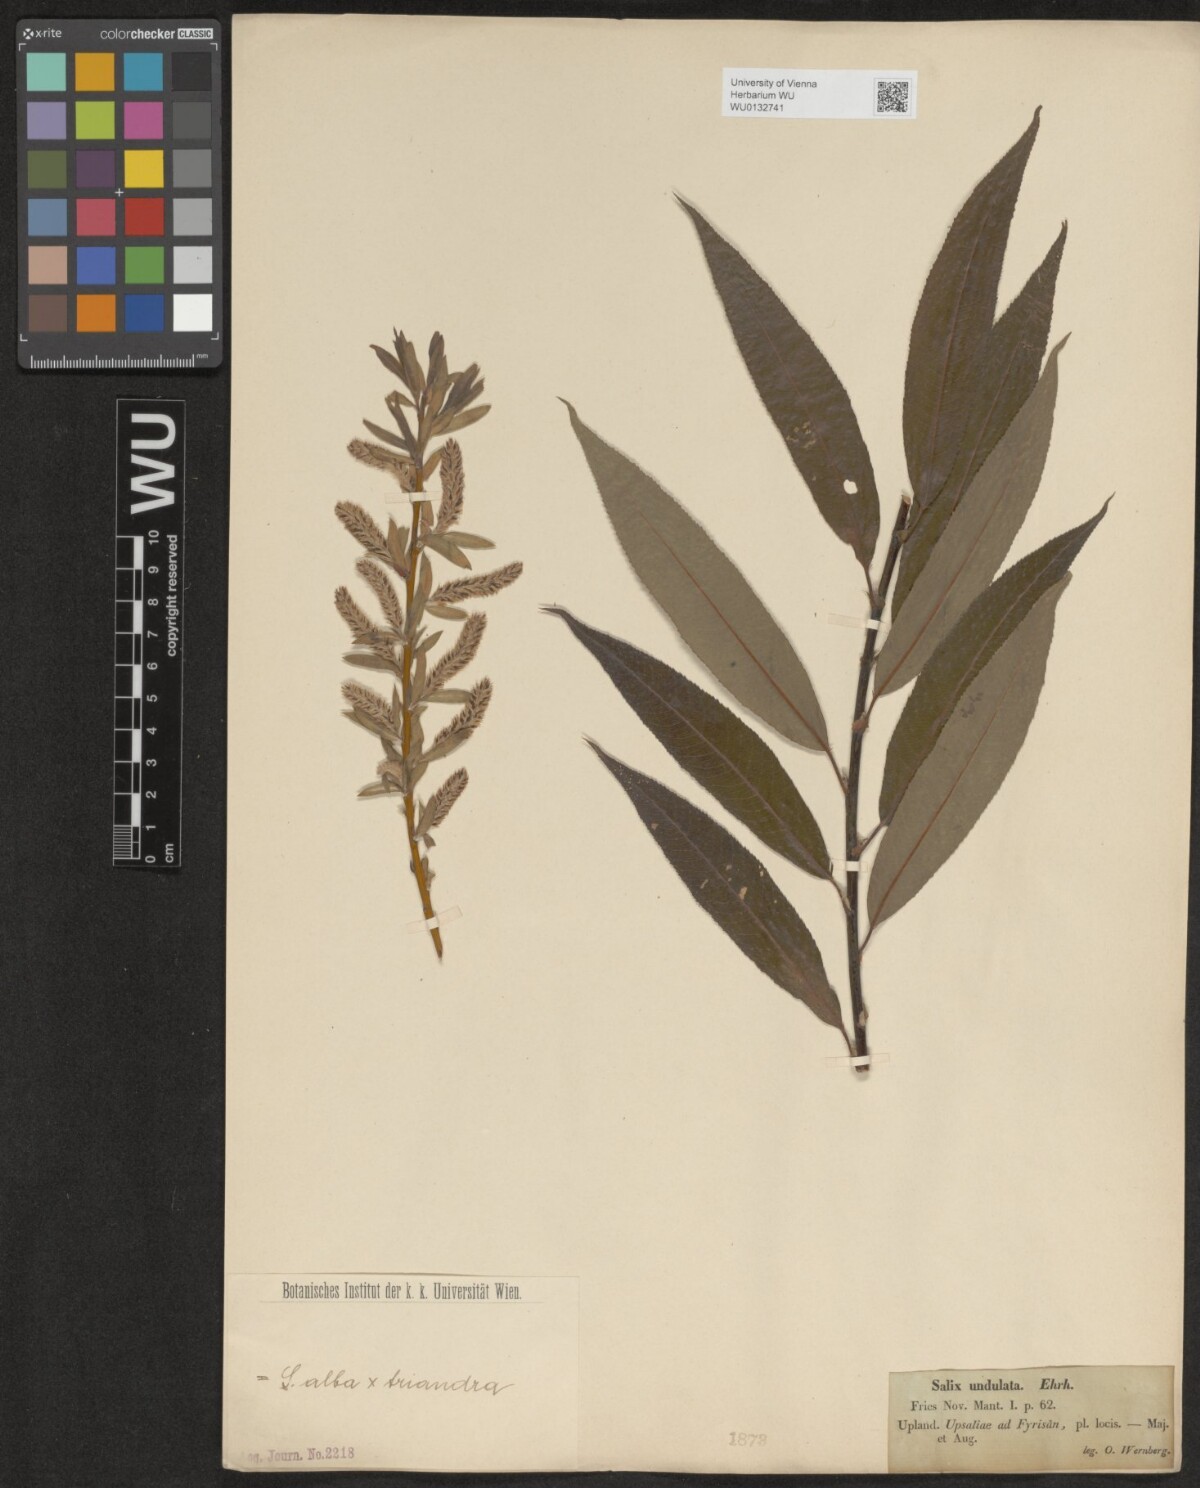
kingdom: Plantae
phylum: Tracheophyta
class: Magnoliopsida
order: Malpighiales
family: Salicaceae
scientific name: Salicaceae
